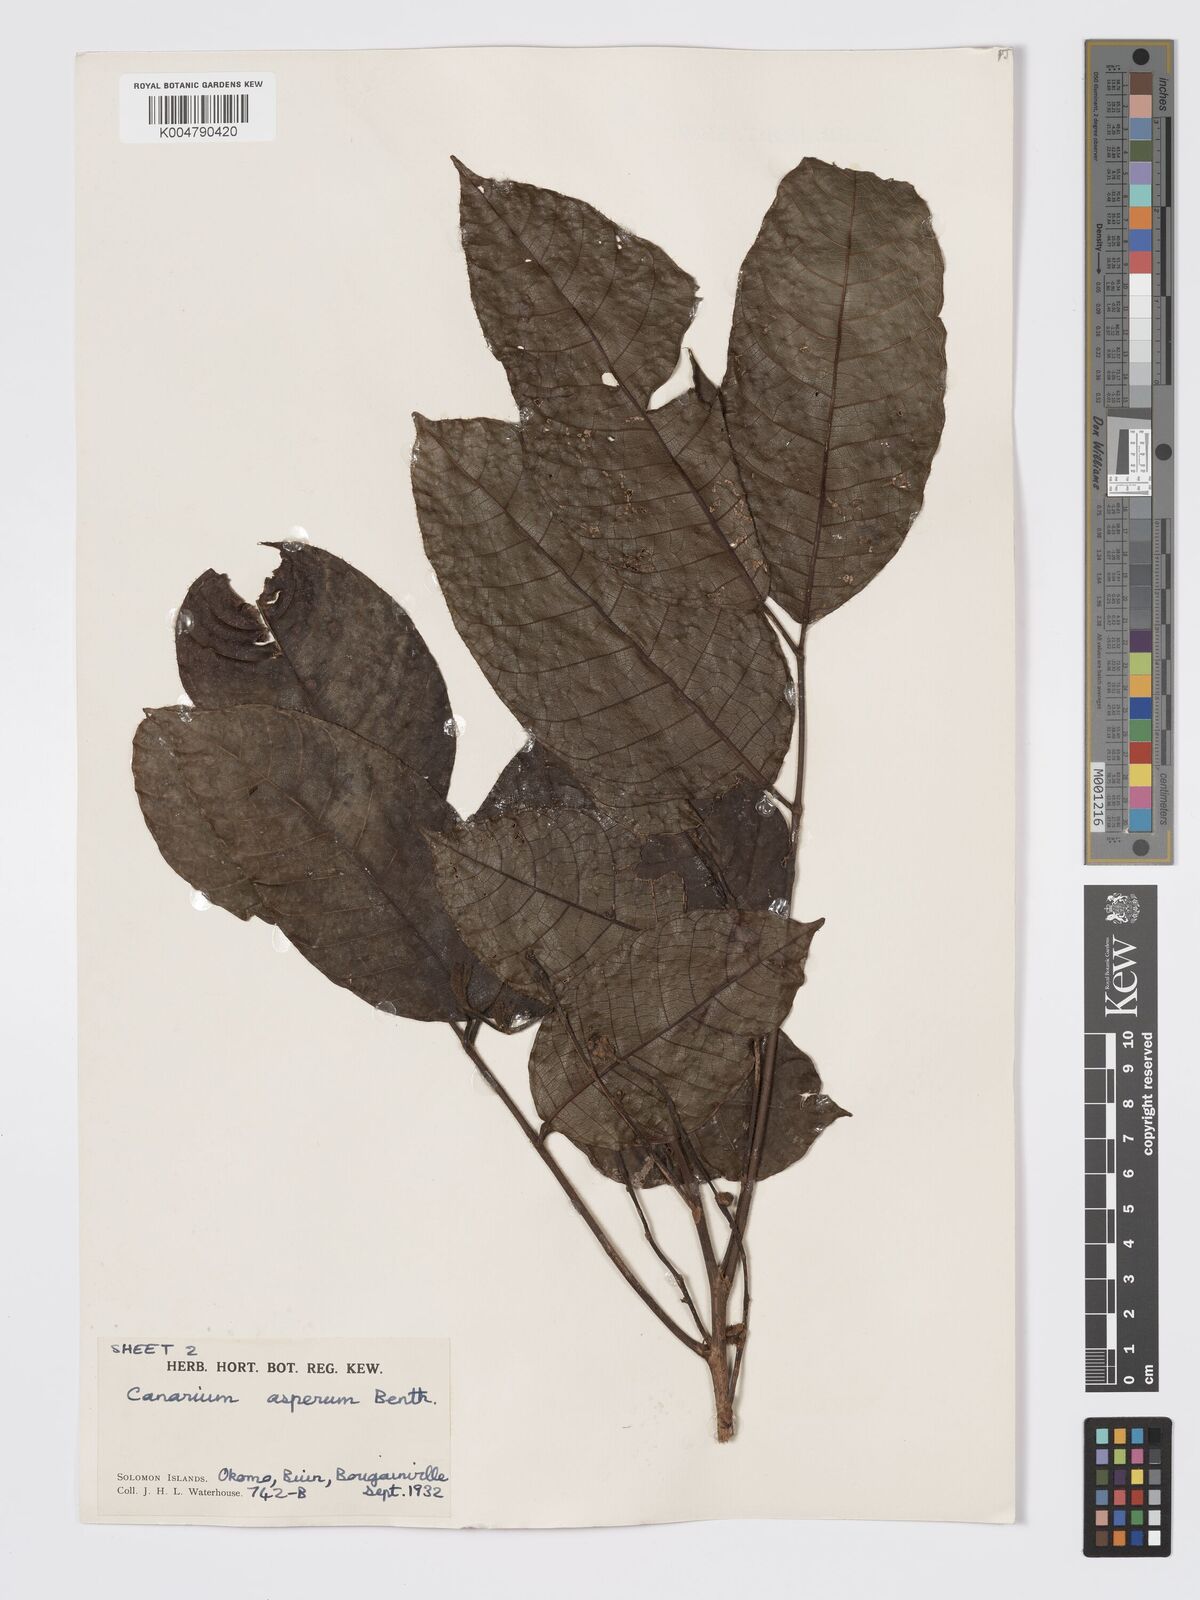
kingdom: Plantae
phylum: Tracheophyta
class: Magnoliopsida
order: Sapindales
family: Burseraceae
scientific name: Burseraceae
